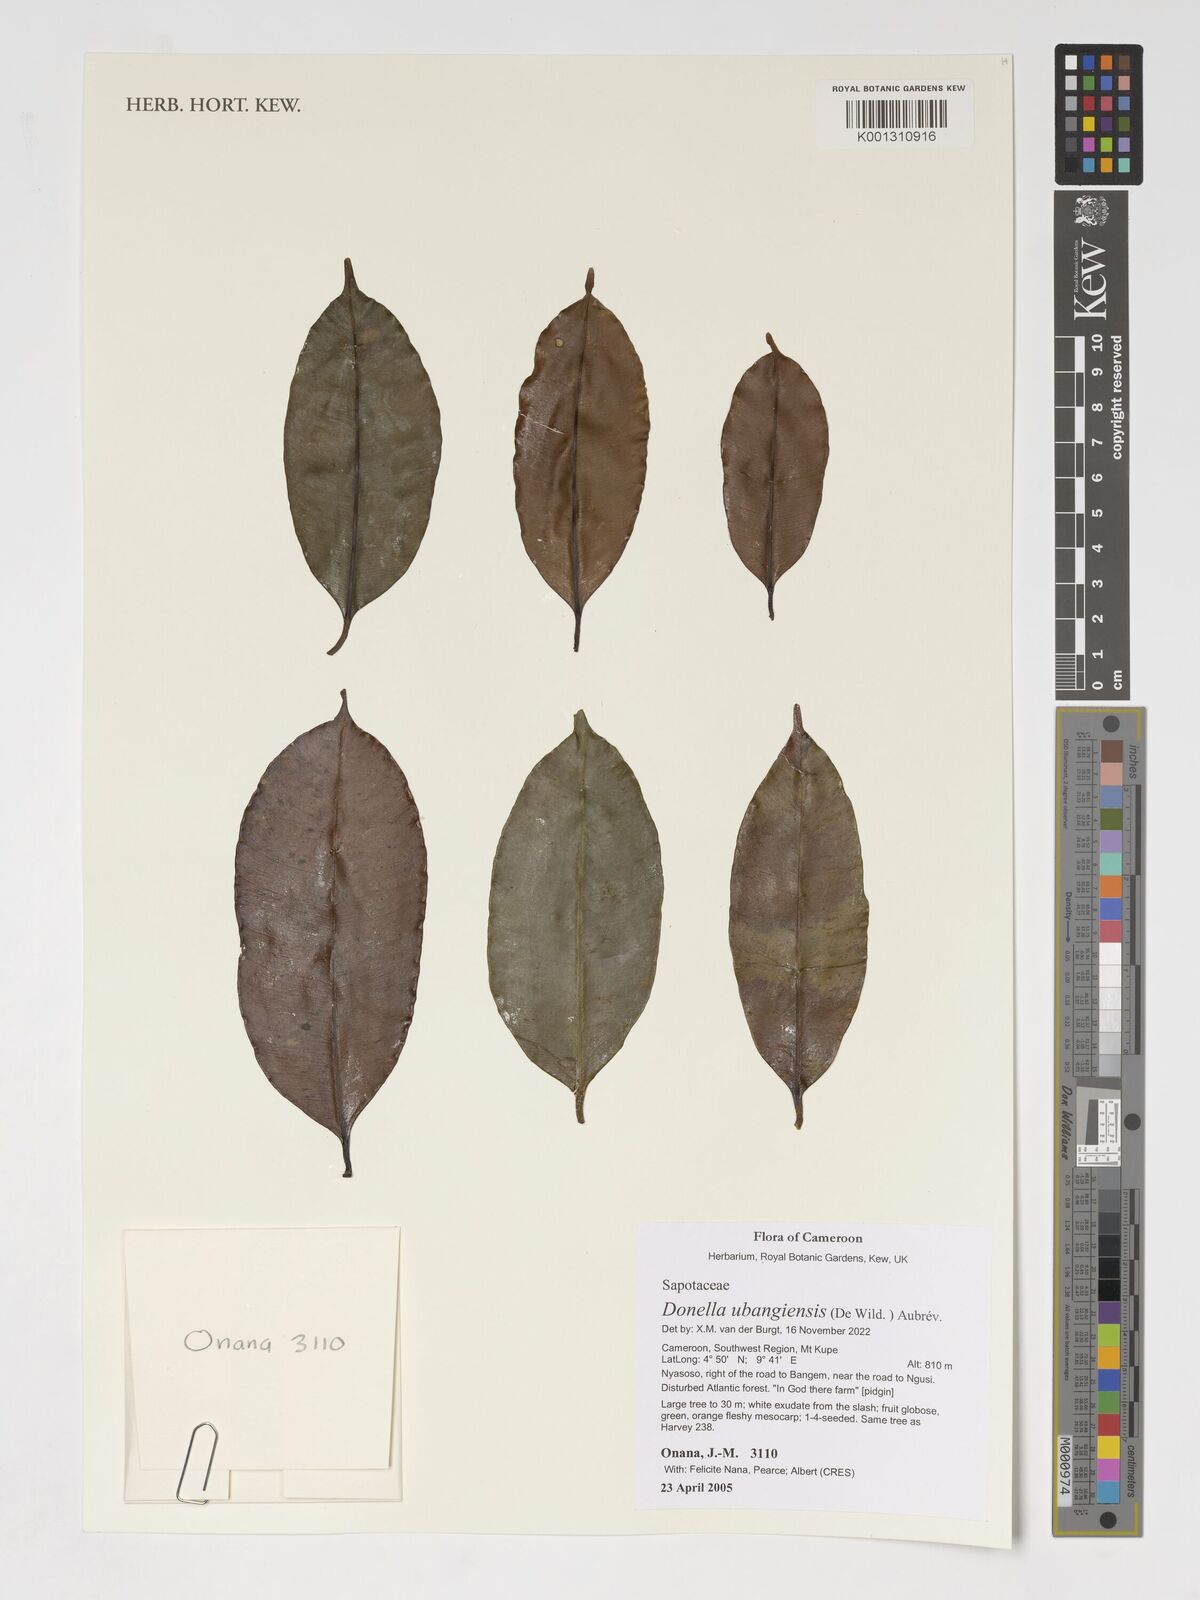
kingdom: Plantae
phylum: Tracheophyta
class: Magnoliopsida
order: Ericales
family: Sapotaceae
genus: Donella
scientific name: Donella ubangiensis
